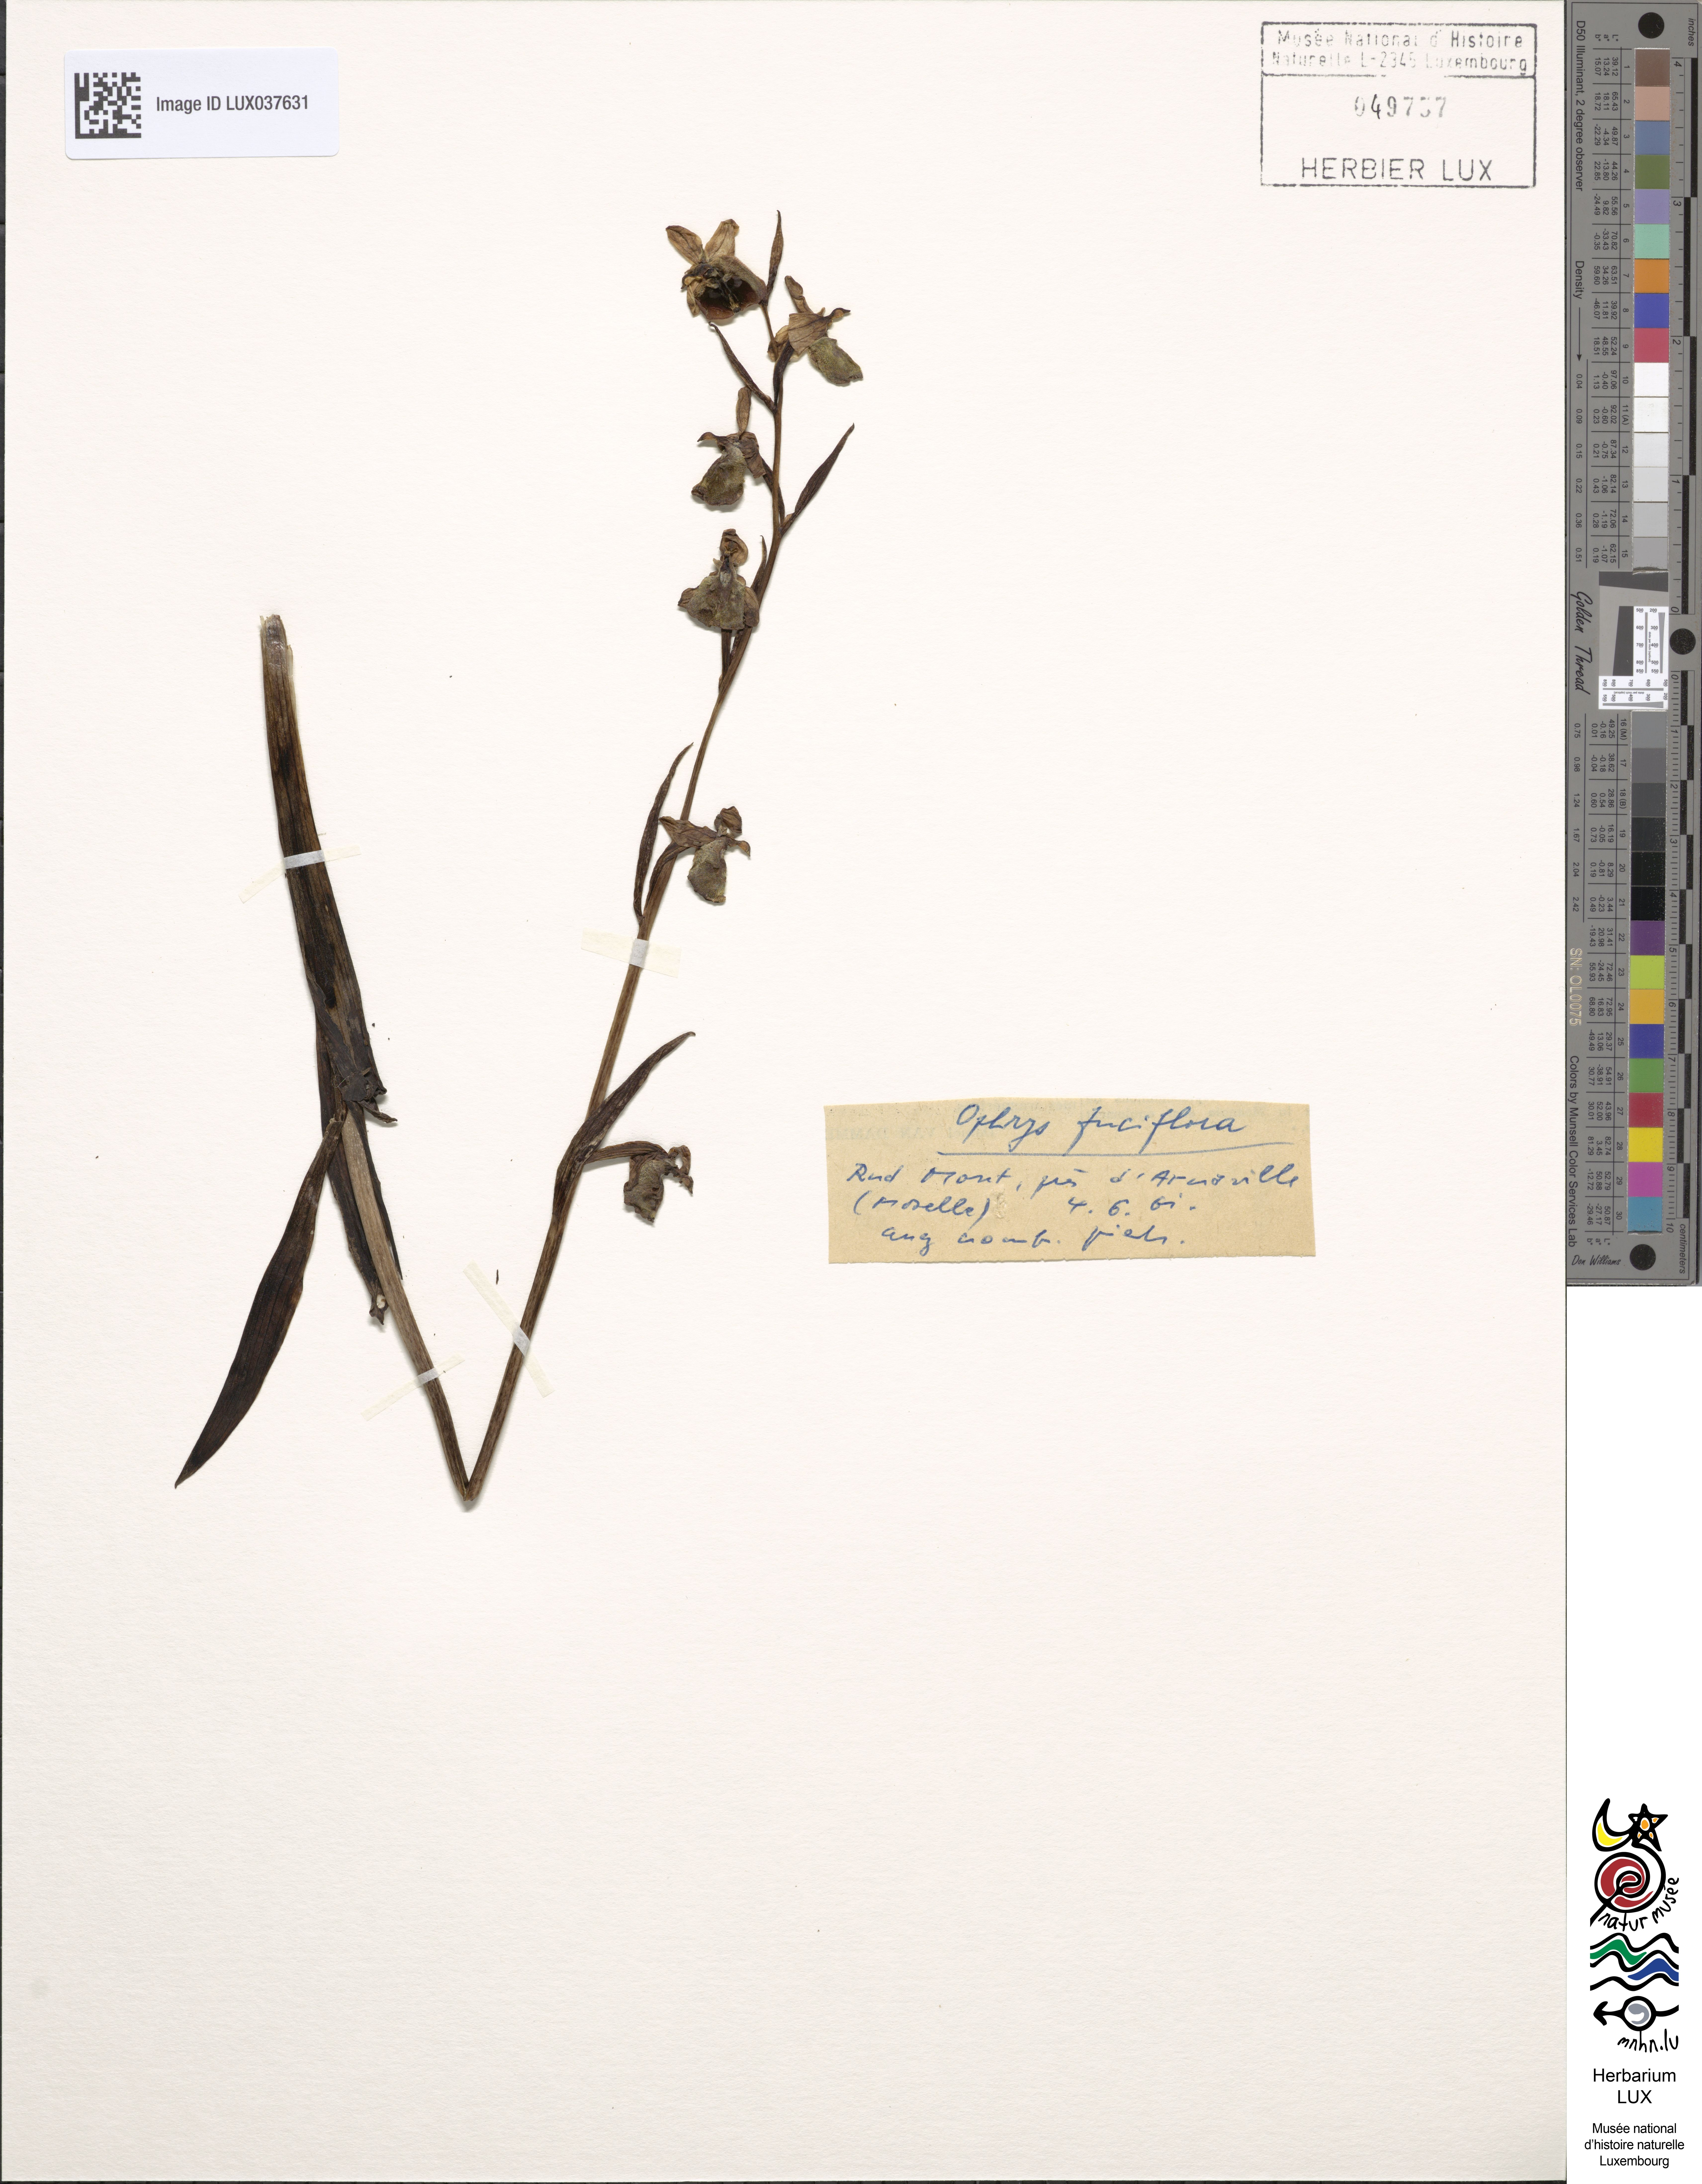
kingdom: Plantae
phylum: Tracheophyta
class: Liliopsida
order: Asparagales
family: Orchidaceae
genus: Ophrys
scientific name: Ophrys holosericea
